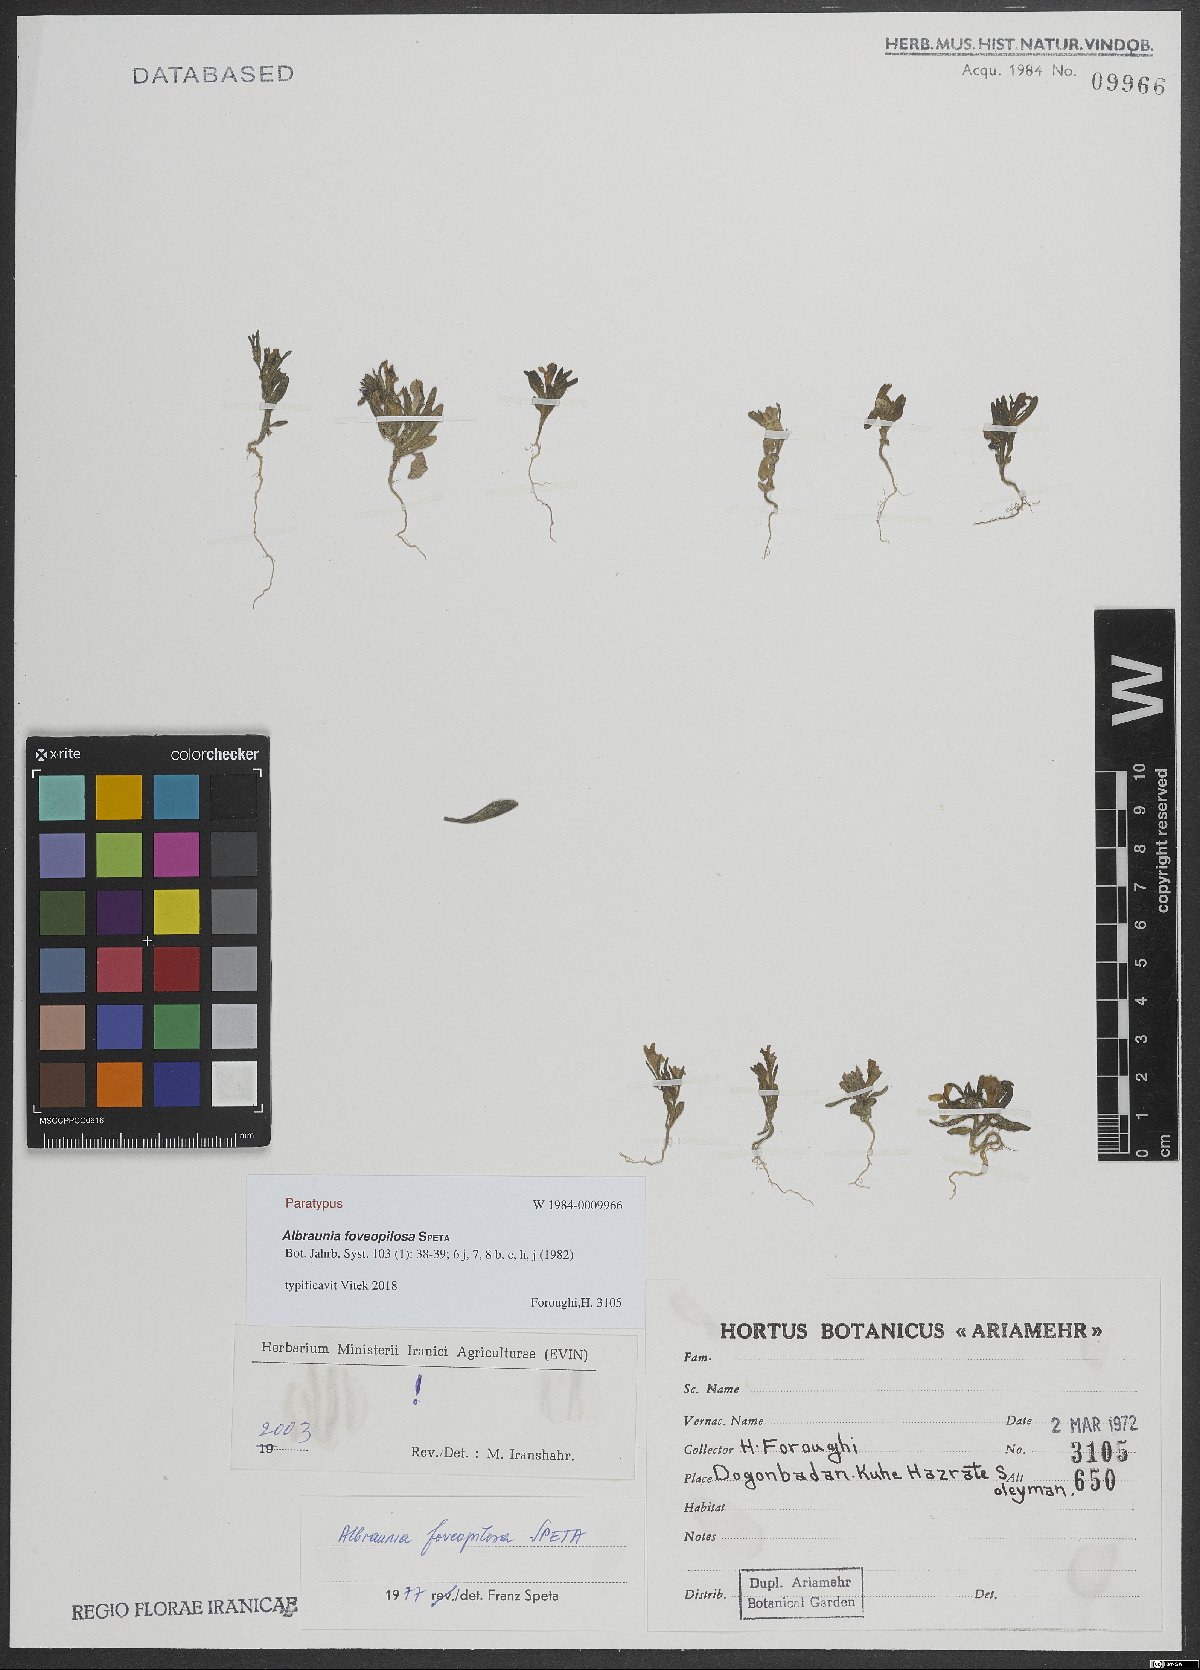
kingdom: Plantae
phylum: Tracheophyta
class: Magnoliopsida
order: Lamiales
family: Plantaginaceae
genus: Albraunia
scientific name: Albraunia foveopilosa
